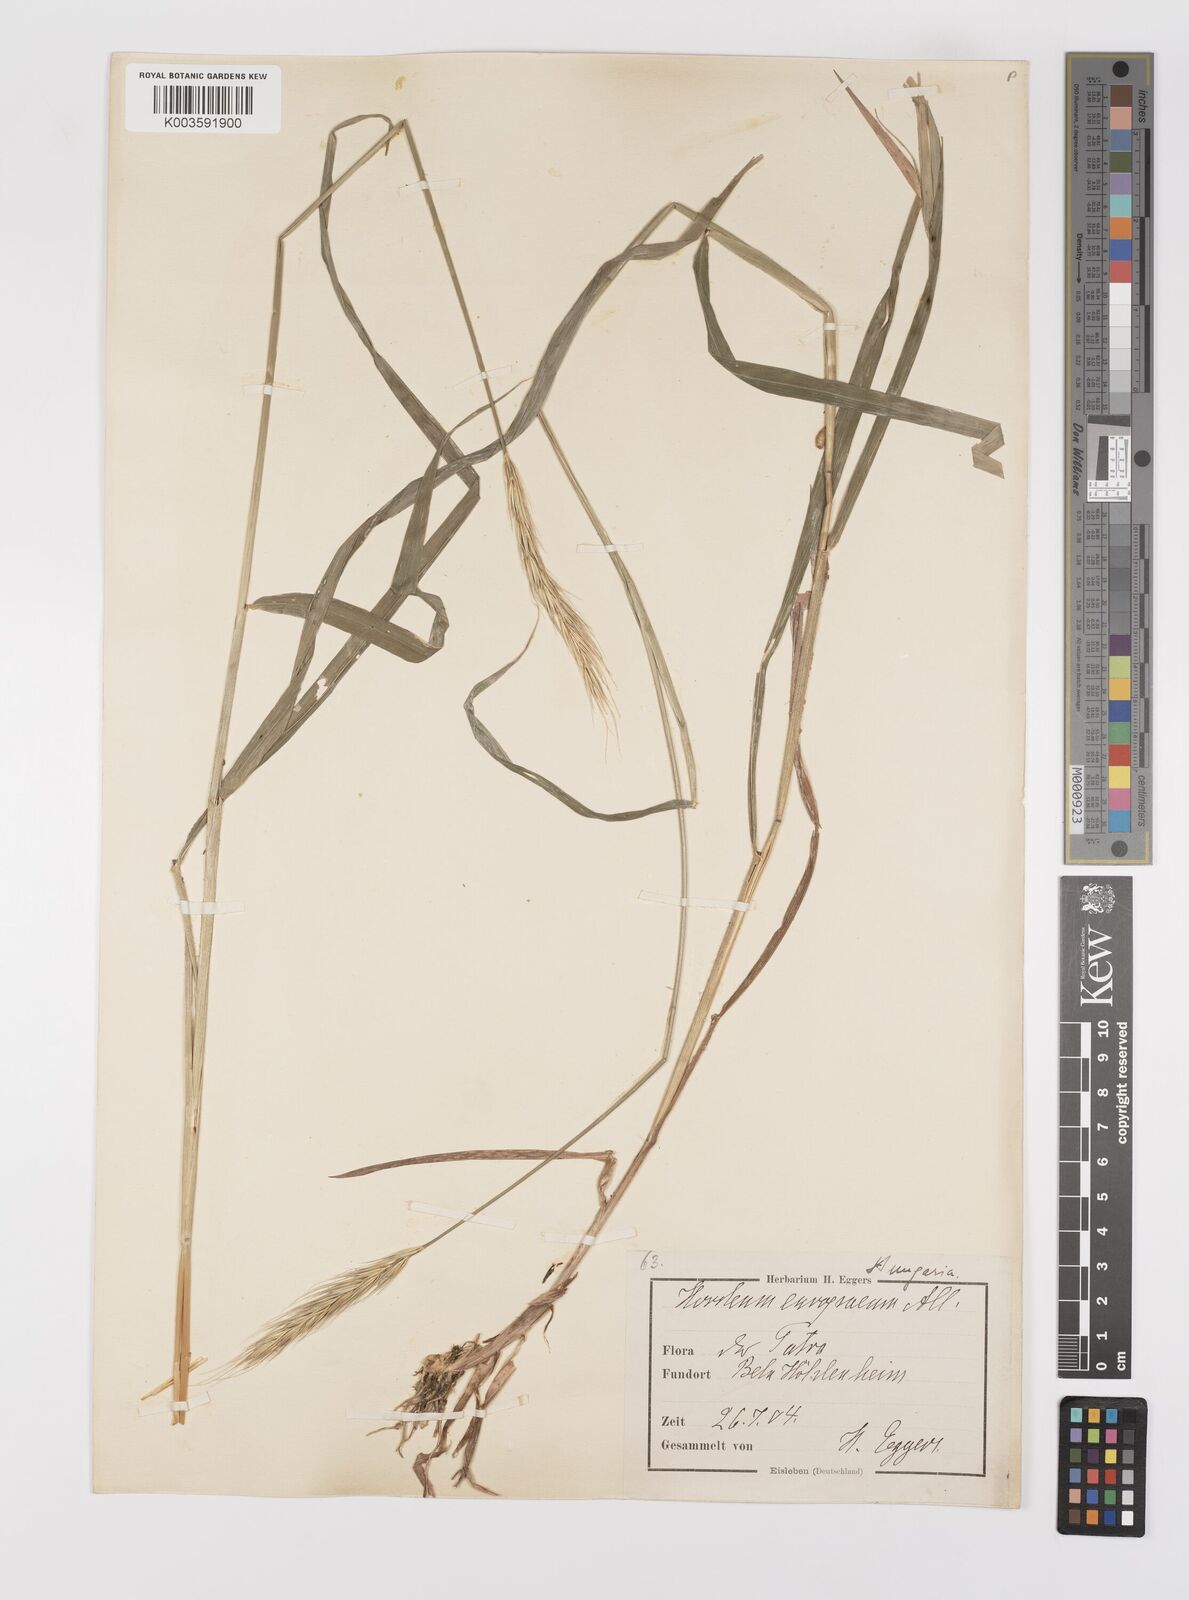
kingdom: Plantae
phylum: Tracheophyta
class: Liliopsida
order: Poales
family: Poaceae
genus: Hordelymus
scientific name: Hordelymus europaeus
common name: Wood-barley
